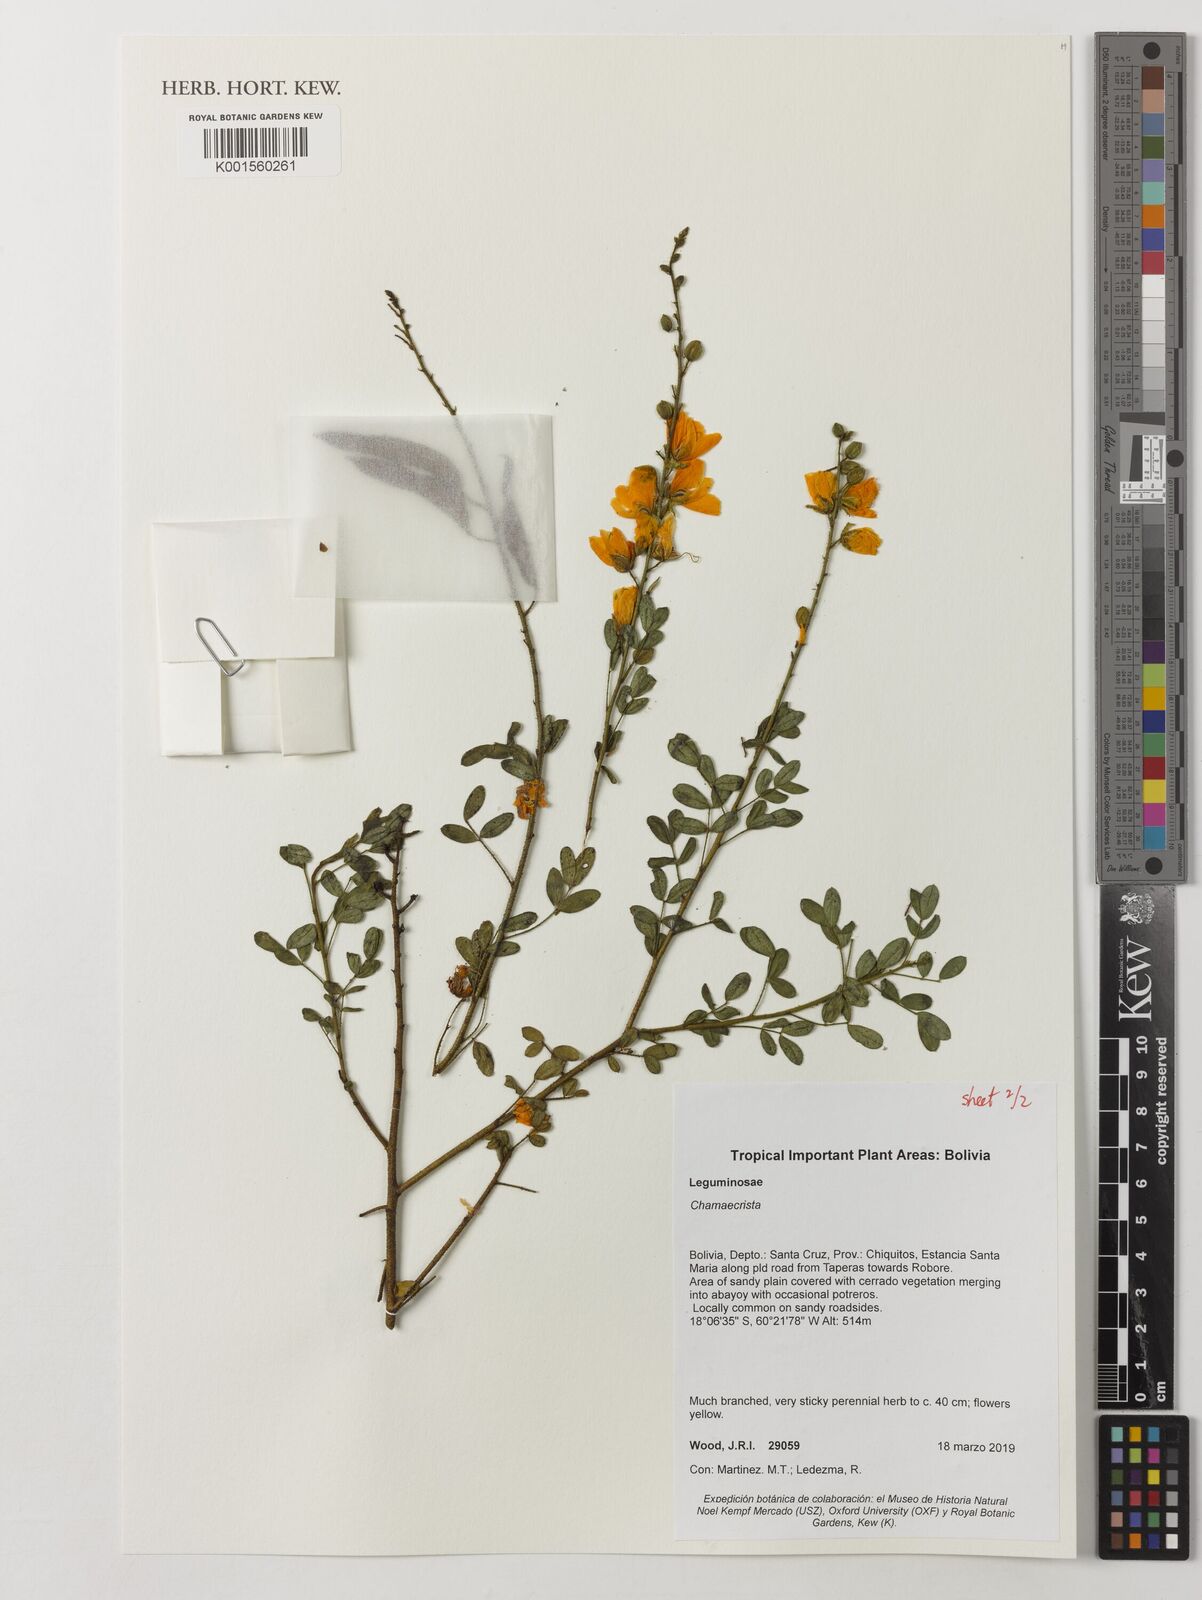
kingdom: Plantae
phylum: Tracheophyta
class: Magnoliopsida
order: Fabales
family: Fabaceae
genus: Chamaecrista
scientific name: Chamaecrista
